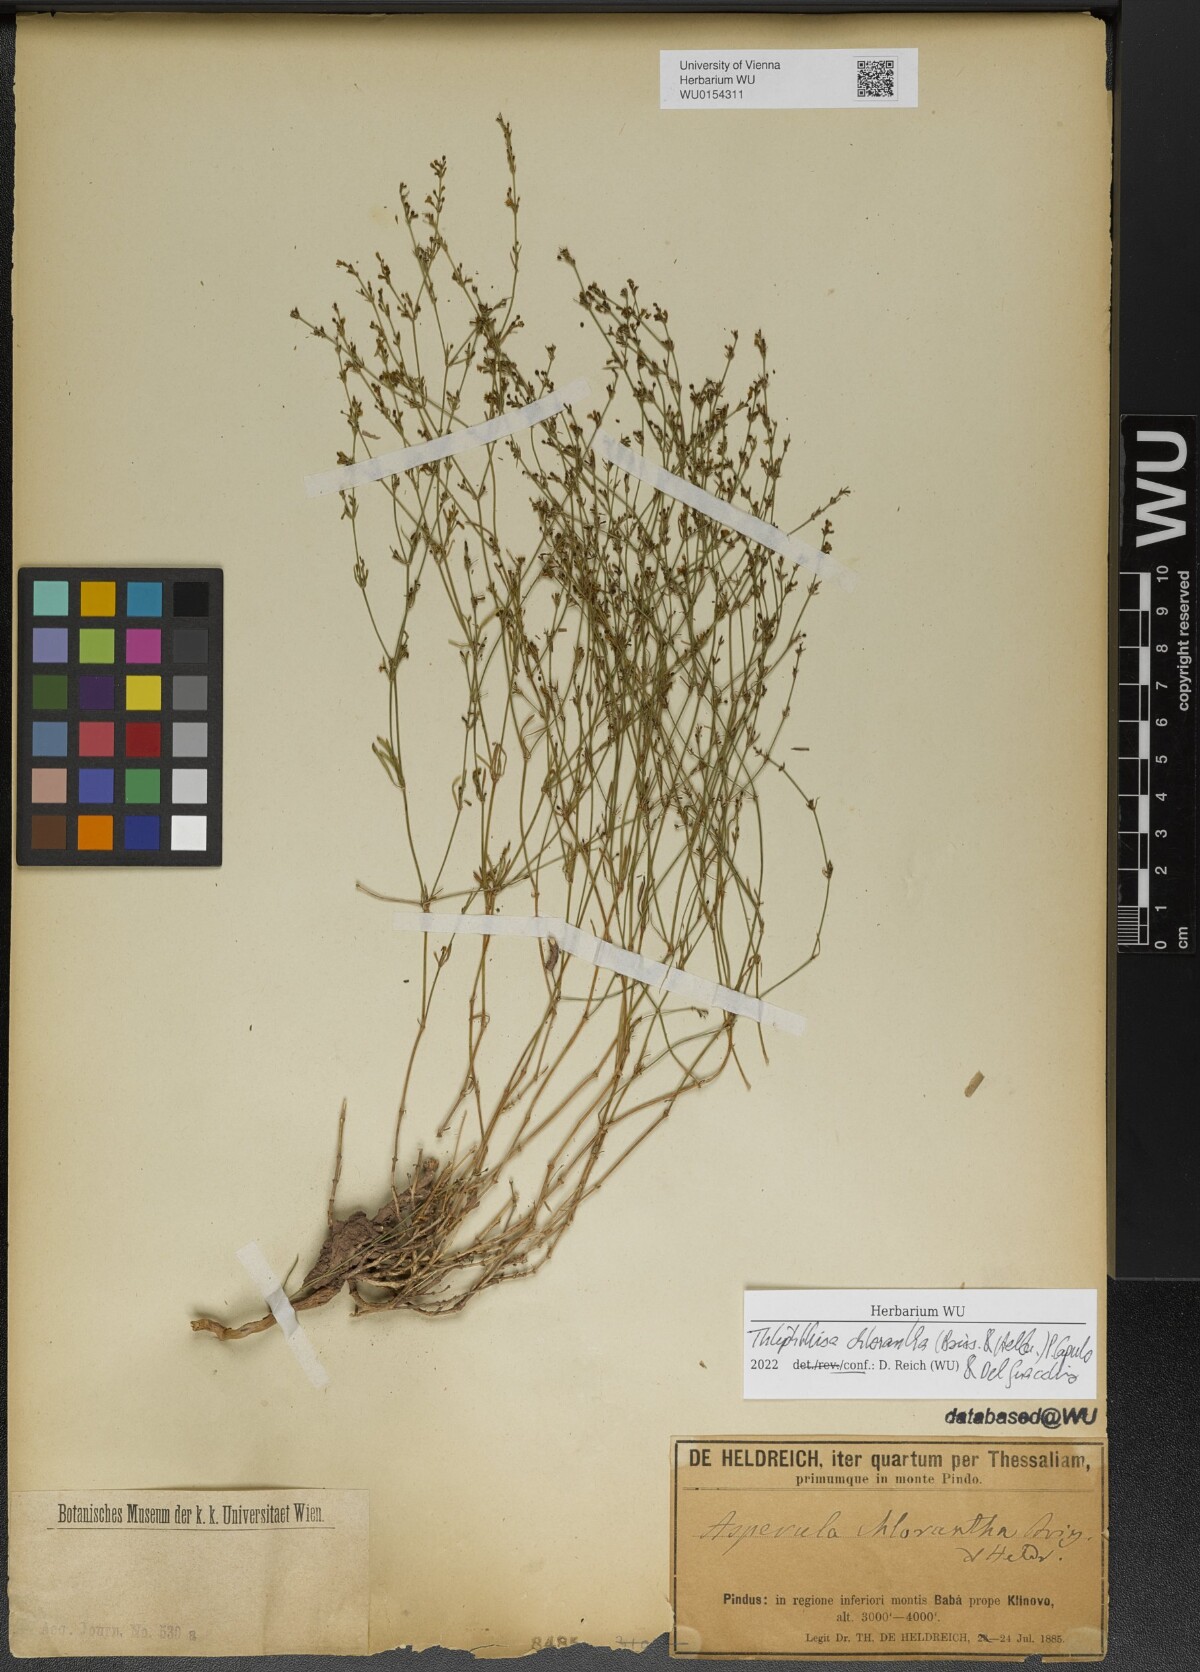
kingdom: Plantae
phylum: Tracheophyta
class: Magnoliopsida
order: Gentianales
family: Rubiaceae
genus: Thliphthisa
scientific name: Thliphthisa chlorantha
